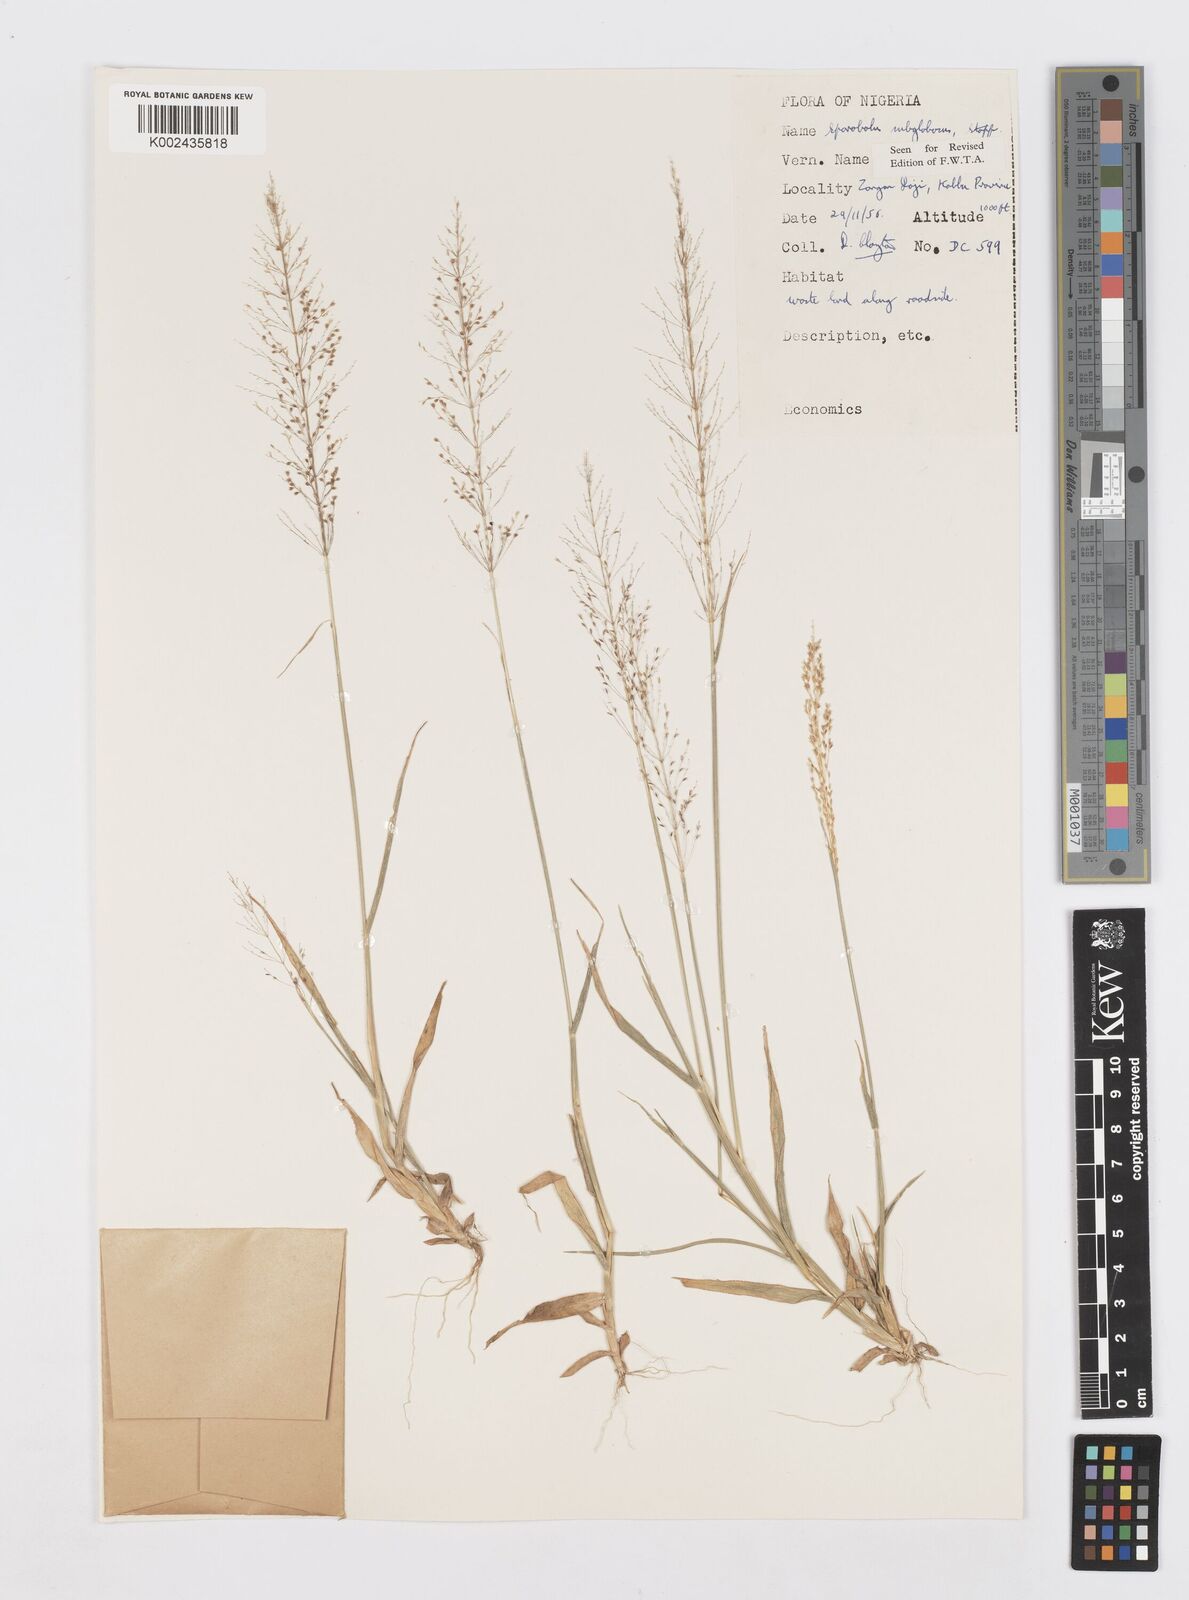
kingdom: Plantae
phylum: Tracheophyta
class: Liliopsida
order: Poales
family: Poaceae
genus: Sporobolus
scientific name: Sporobolus subglobosus
